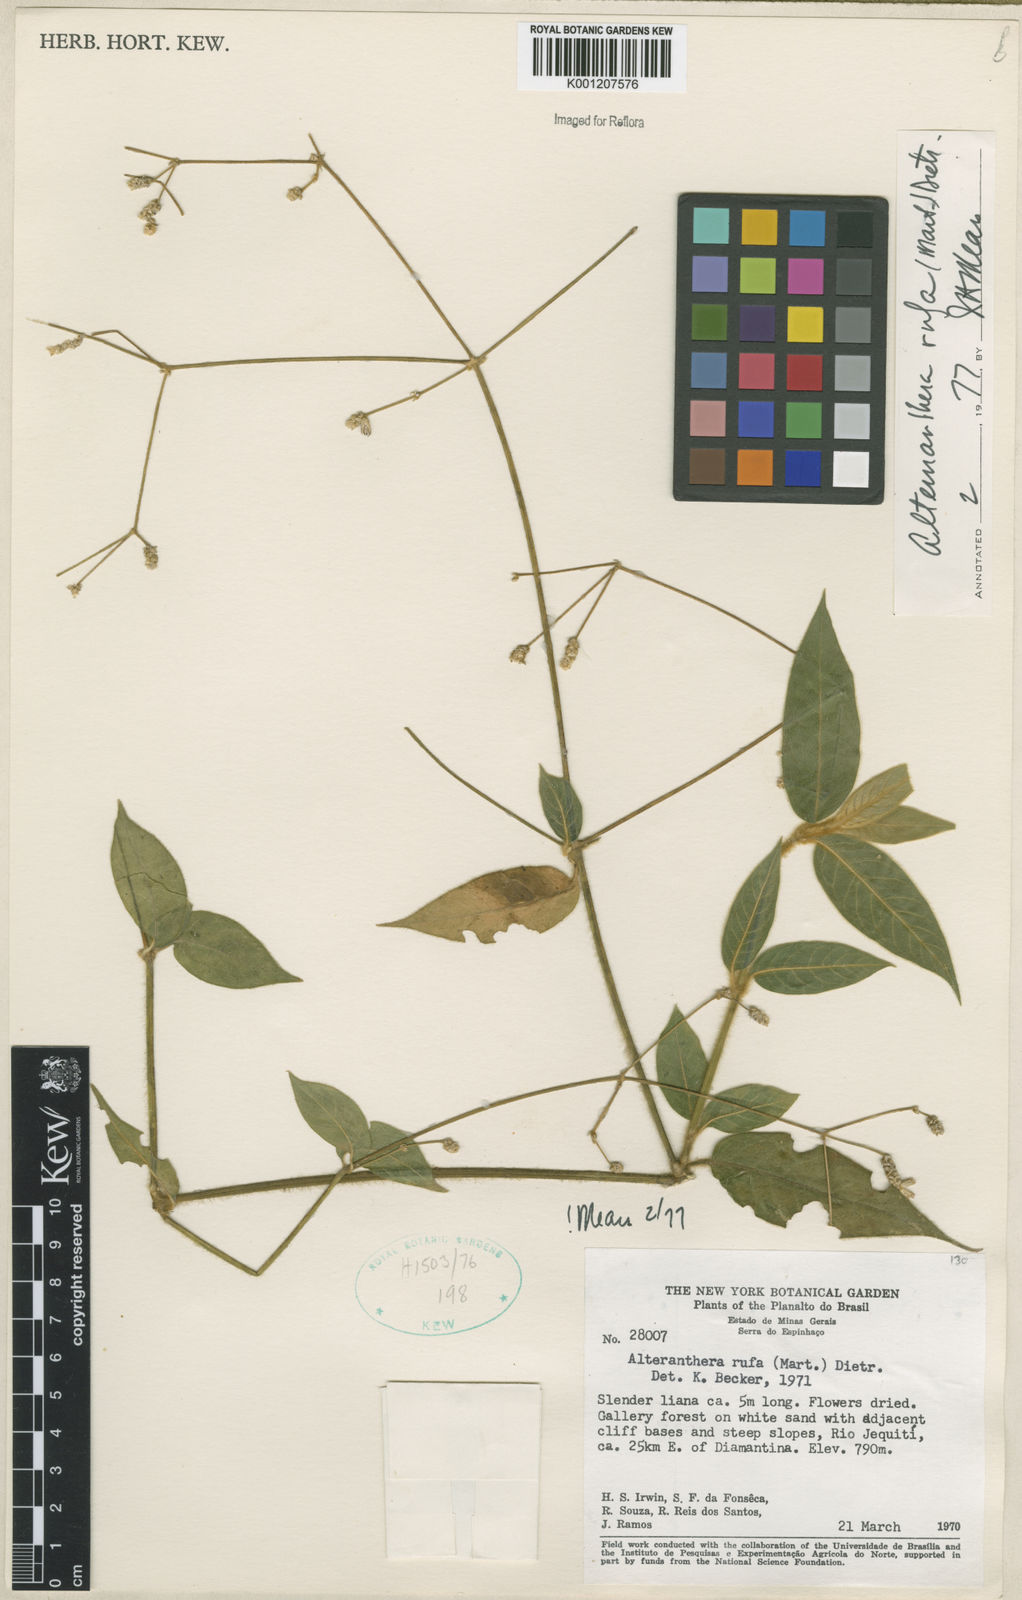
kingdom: Plantae
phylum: Tracheophyta
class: Magnoliopsida
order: Caryophyllales
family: Amaranthaceae
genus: Alternanthera
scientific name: Alternanthera rufa
